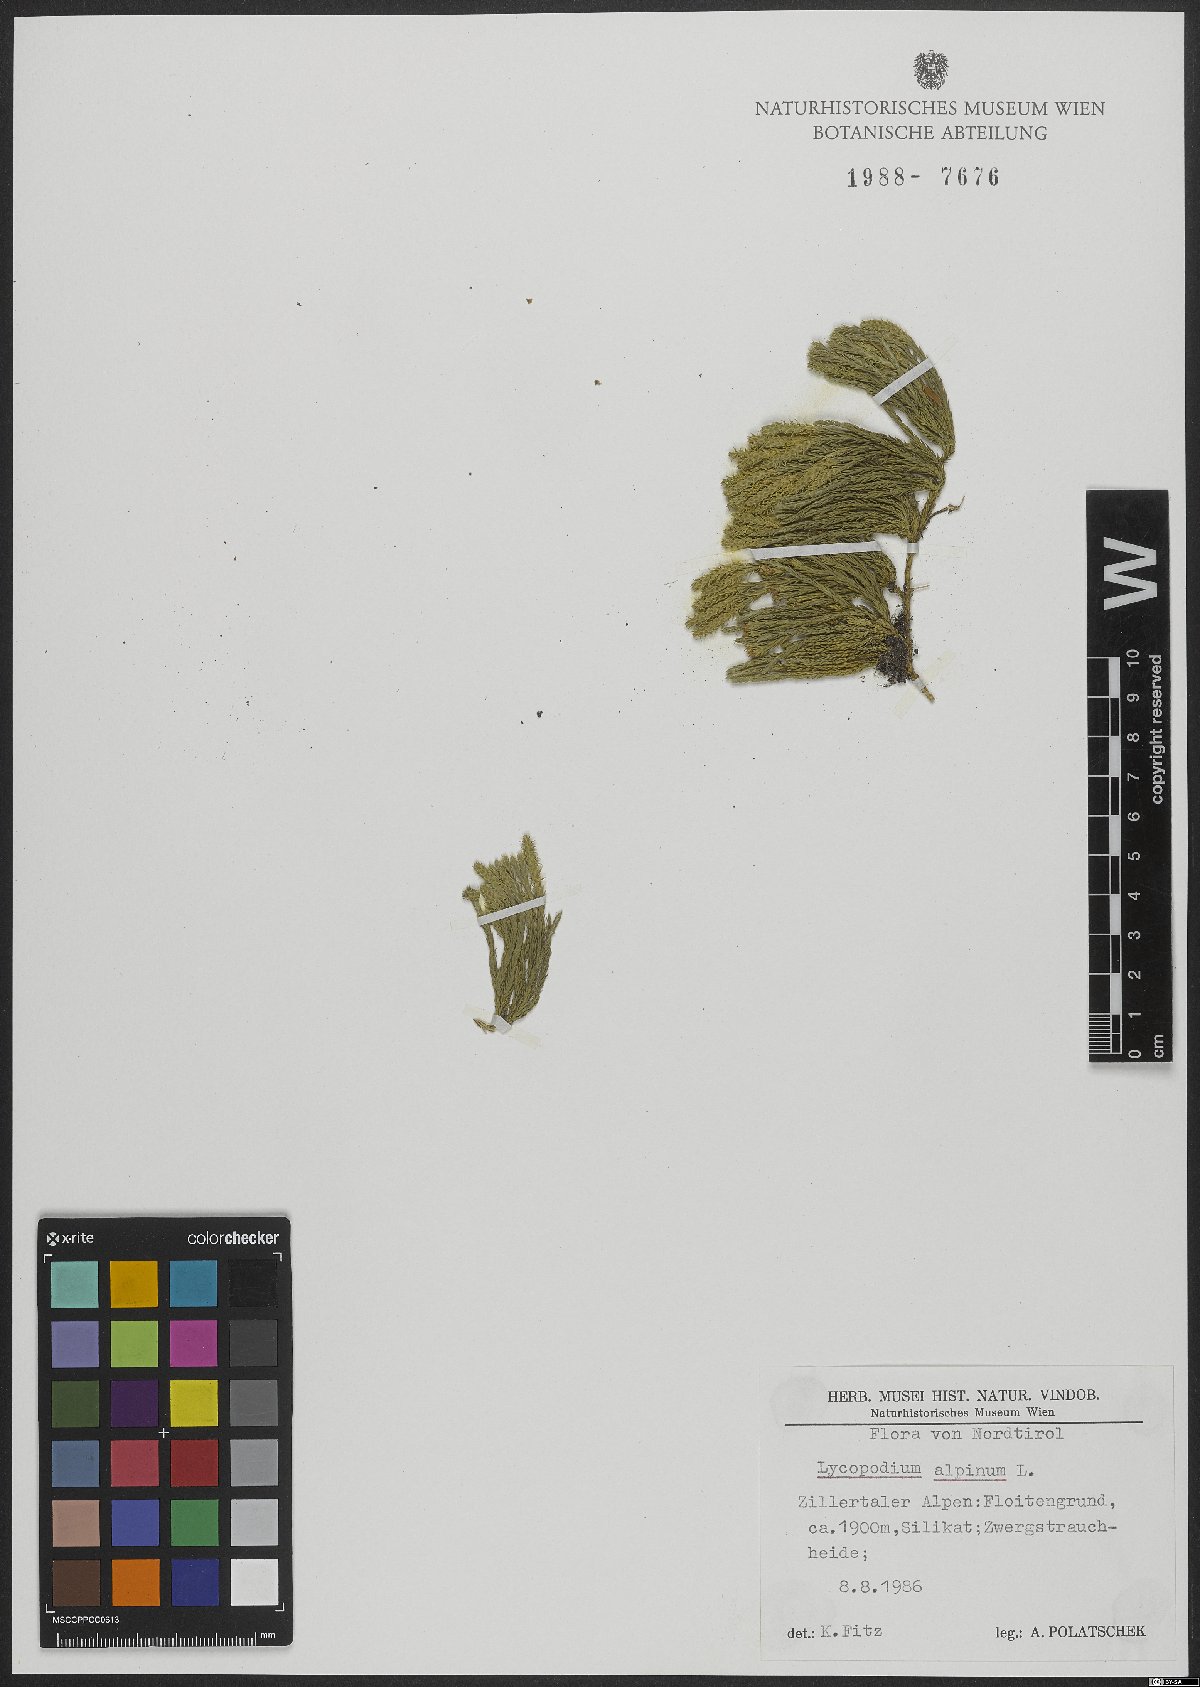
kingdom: Plantae
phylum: Tracheophyta
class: Lycopodiopsida
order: Lycopodiales
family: Lycopodiaceae
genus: Diphasiastrum
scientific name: Diphasiastrum alpinum
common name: Alpine clubmoss
